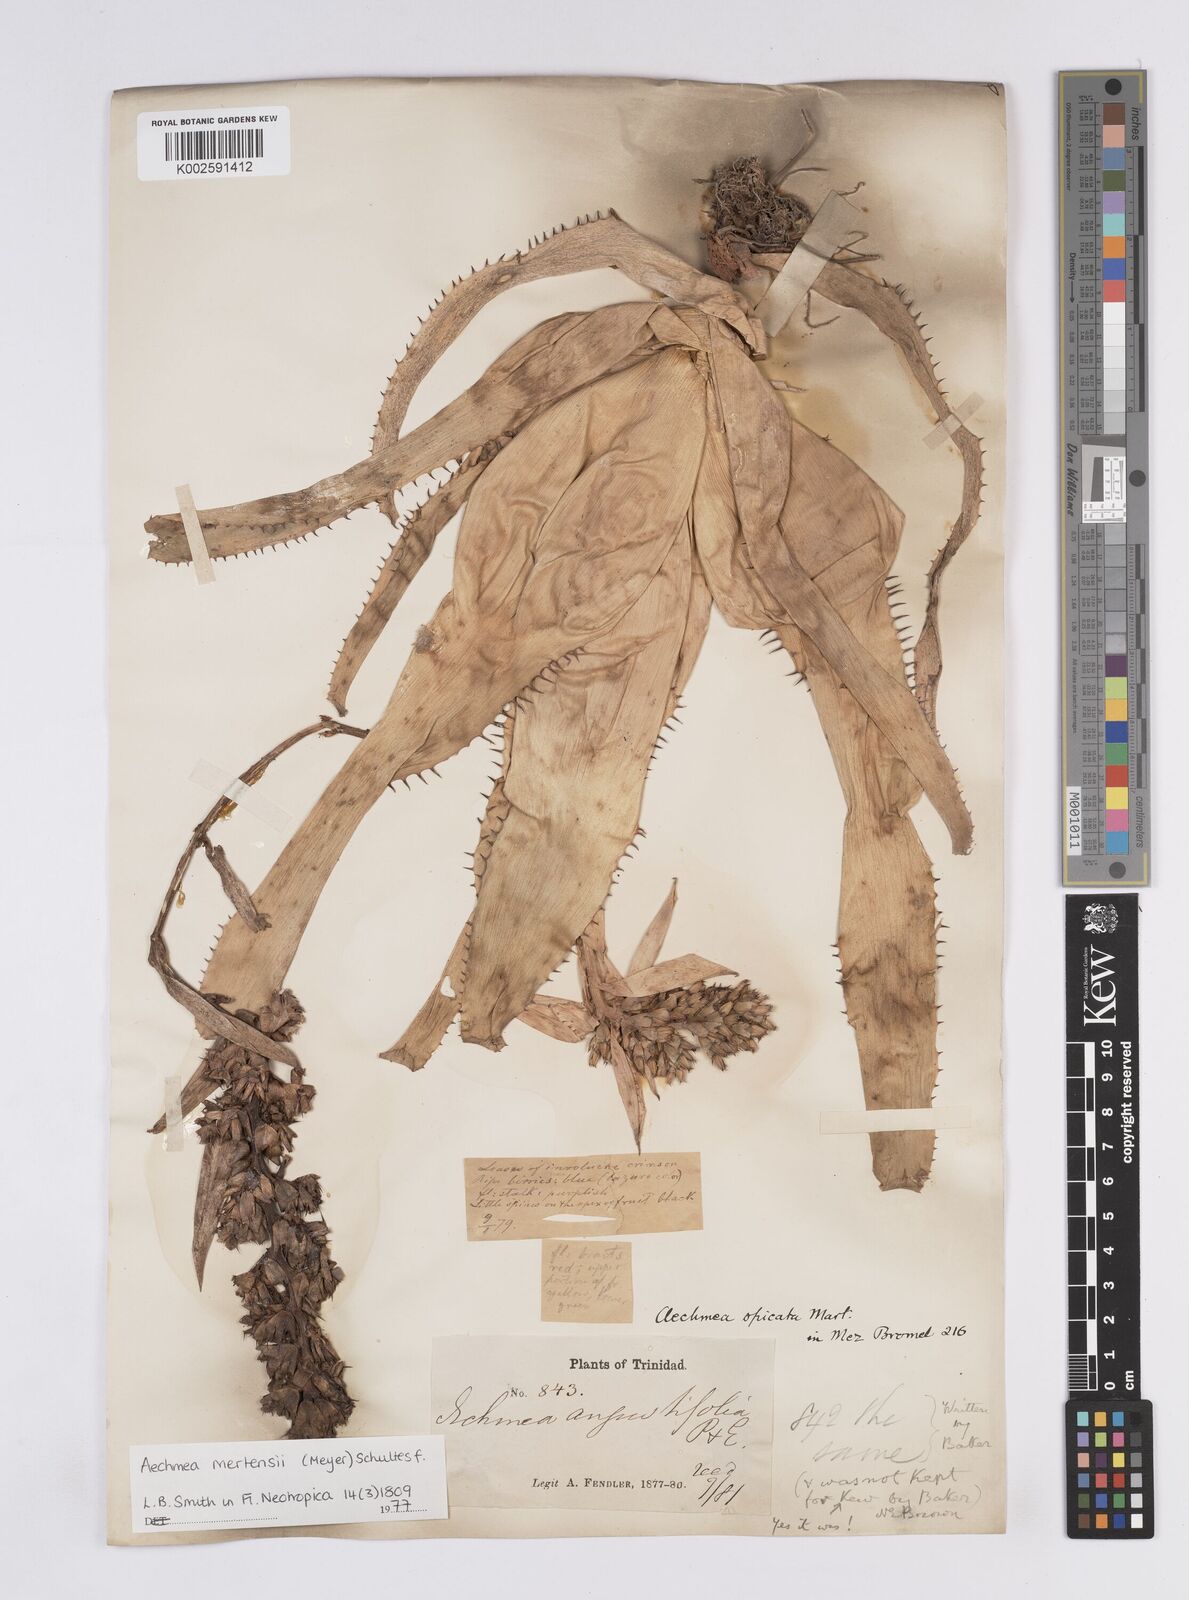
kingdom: Plantae
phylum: Tracheophyta
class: Liliopsida
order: Poales
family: Bromeliaceae
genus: Aechmea
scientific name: Aechmea mertensii
